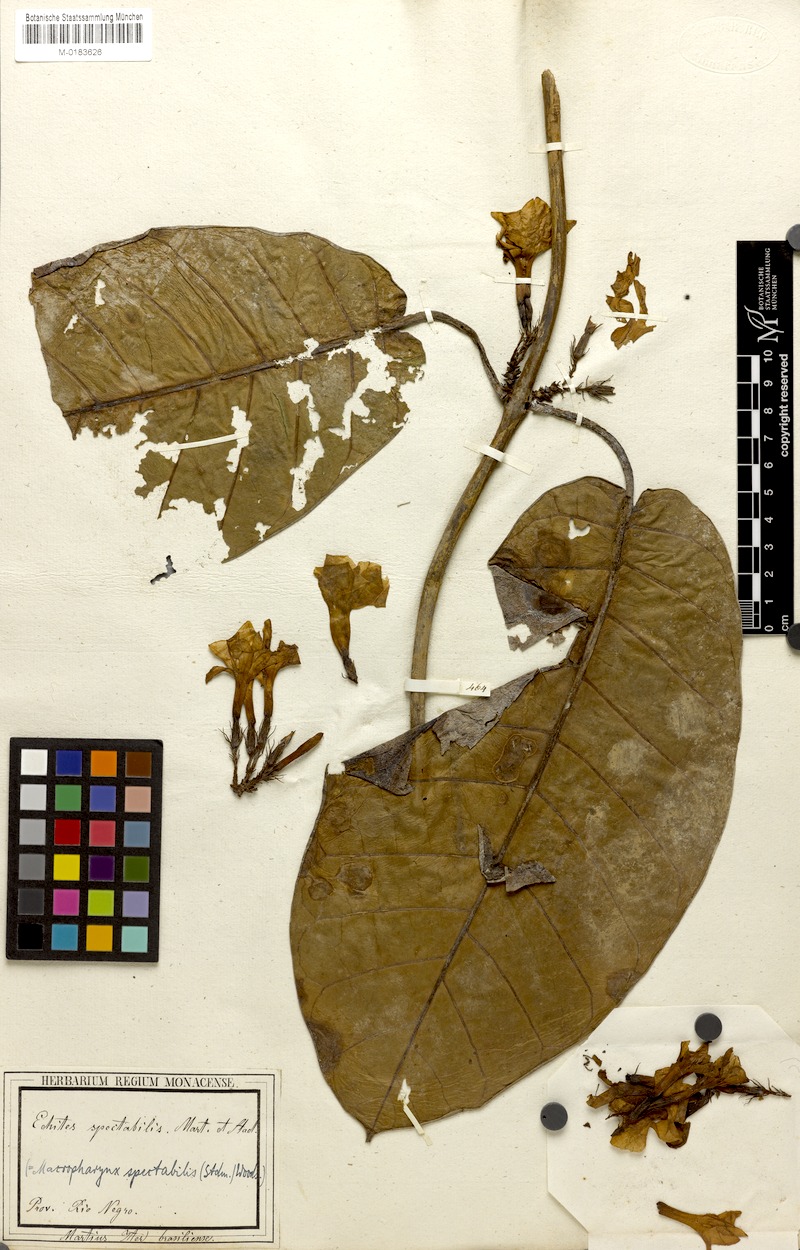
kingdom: Plantae
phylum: Tracheophyta
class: Magnoliopsida
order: Gentianales
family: Apocynaceae
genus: Macropharynx
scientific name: Macropharynx spectabilis
